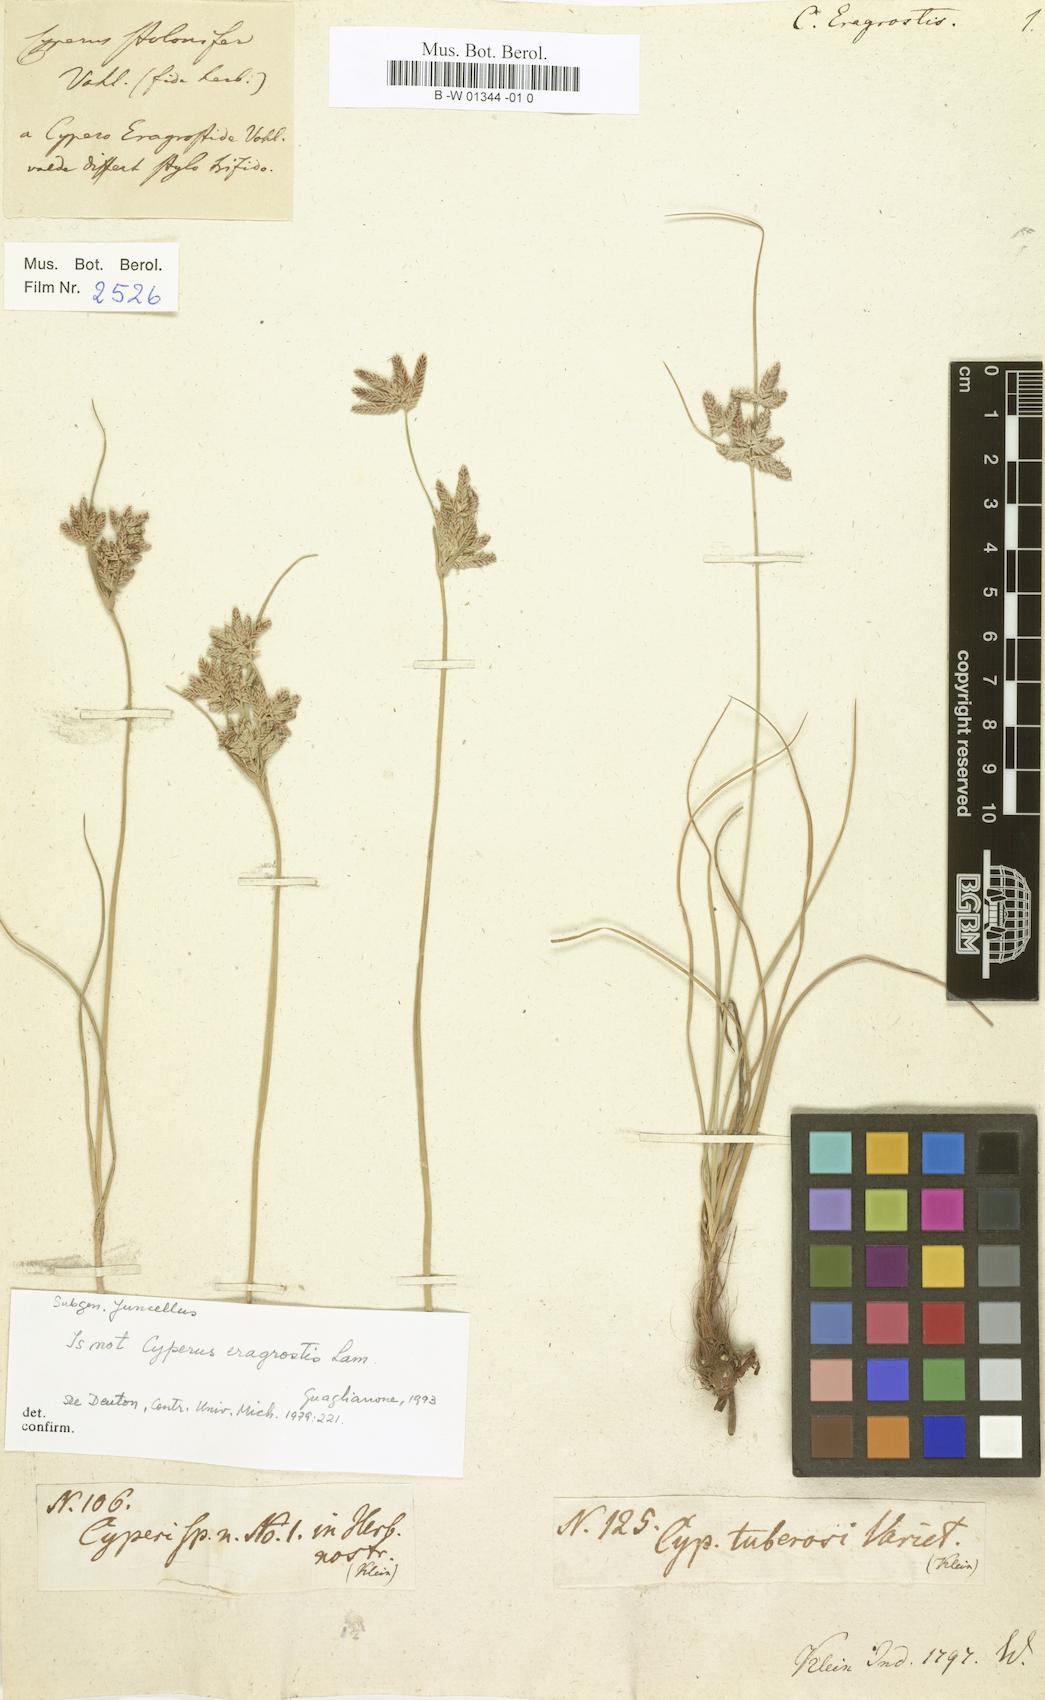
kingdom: Plantae
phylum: Tracheophyta
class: Liliopsida
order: Poales
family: Cyperaceae
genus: Cyperus
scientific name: Cyperus eragrostis
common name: Tall flatsedge
